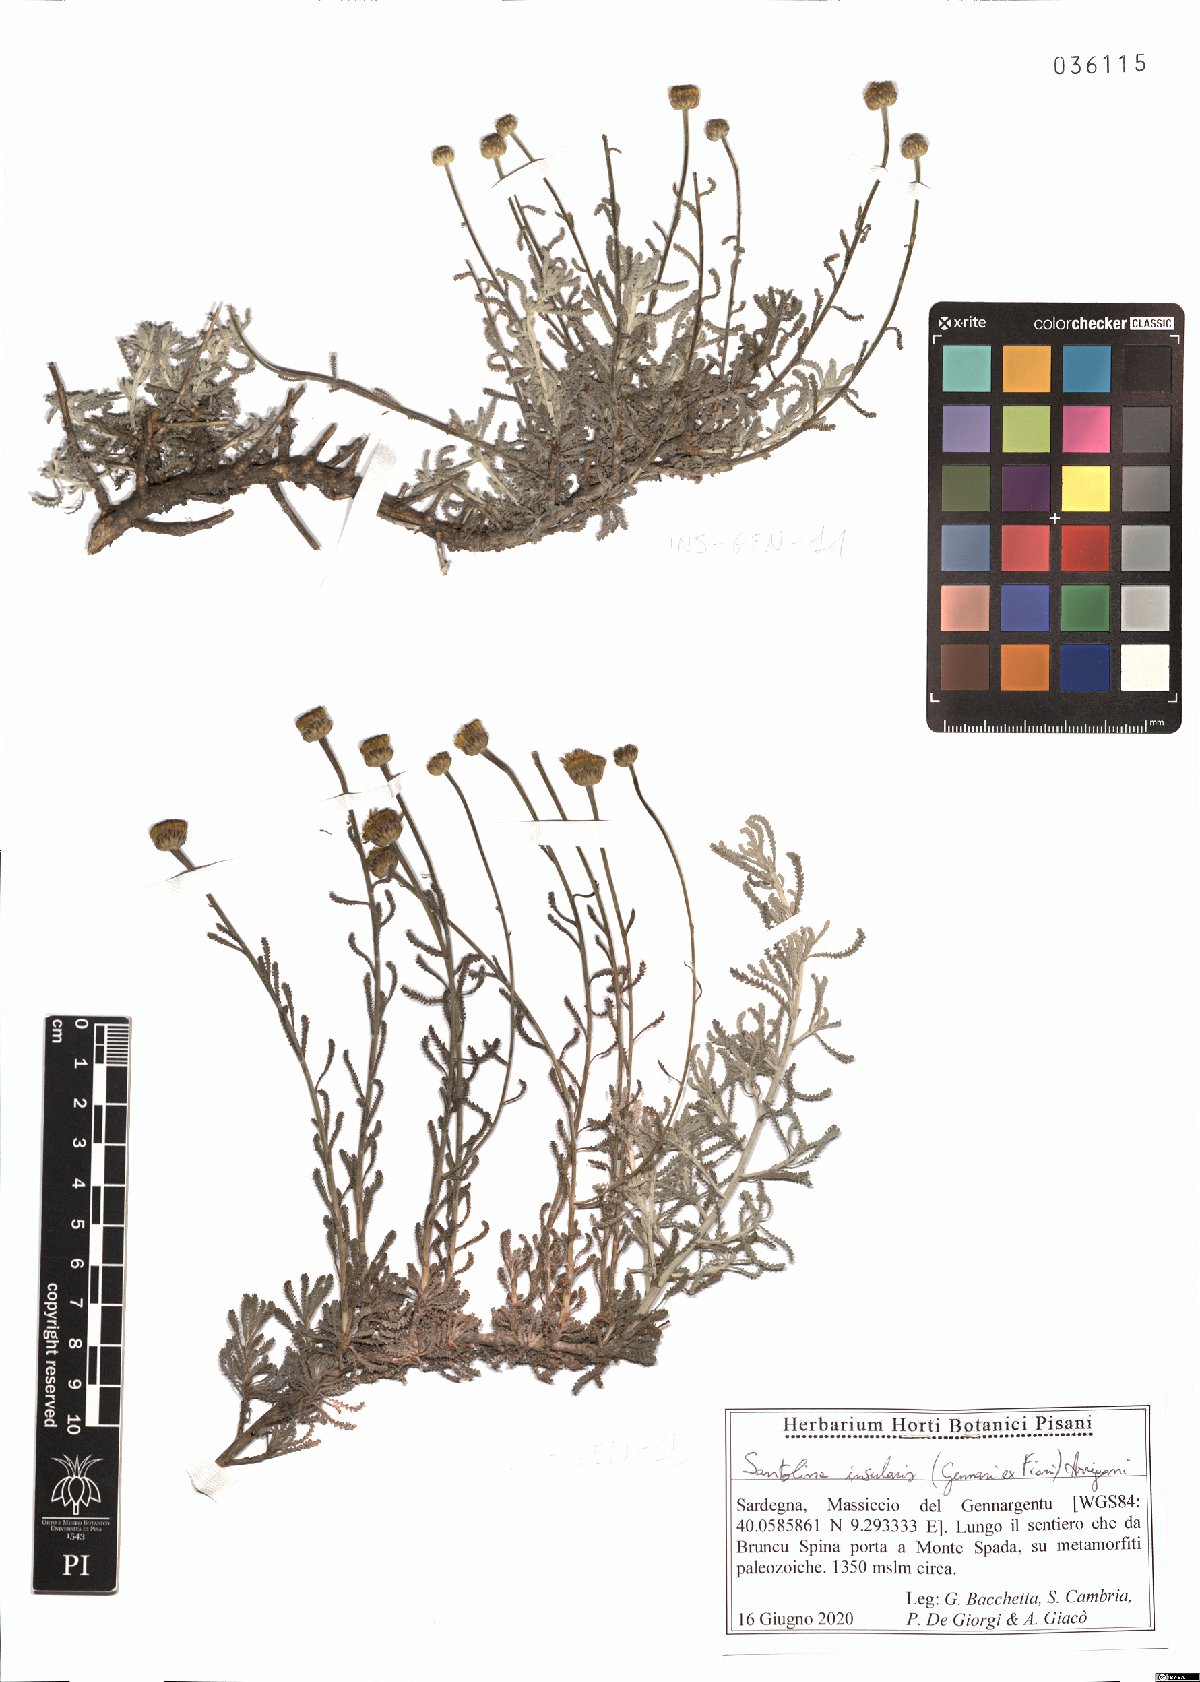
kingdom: Plantae
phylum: Tracheophyta
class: Magnoliopsida
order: Asterales
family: Asteraceae
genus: Santolina
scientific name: Santolina insularis
